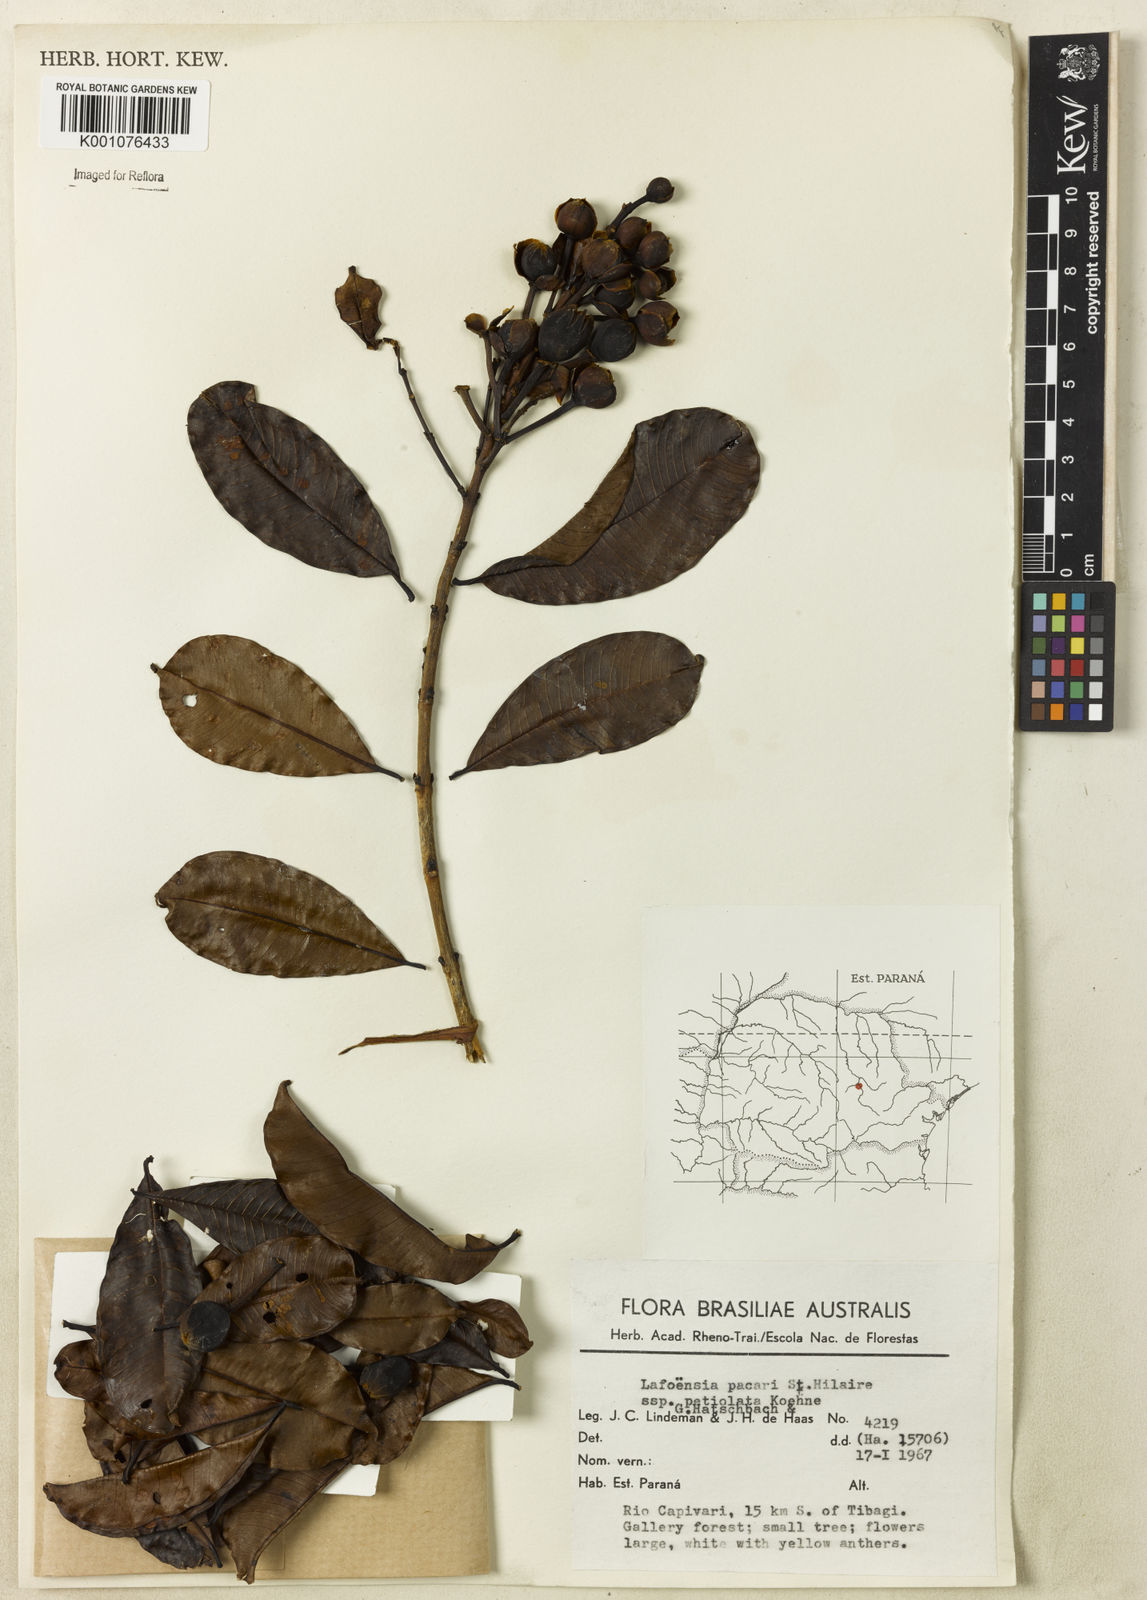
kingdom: Plantae
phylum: Tracheophyta
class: Magnoliopsida
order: Myrtales
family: Lythraceae
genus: Lafoensia
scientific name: Lafoensia pacari
